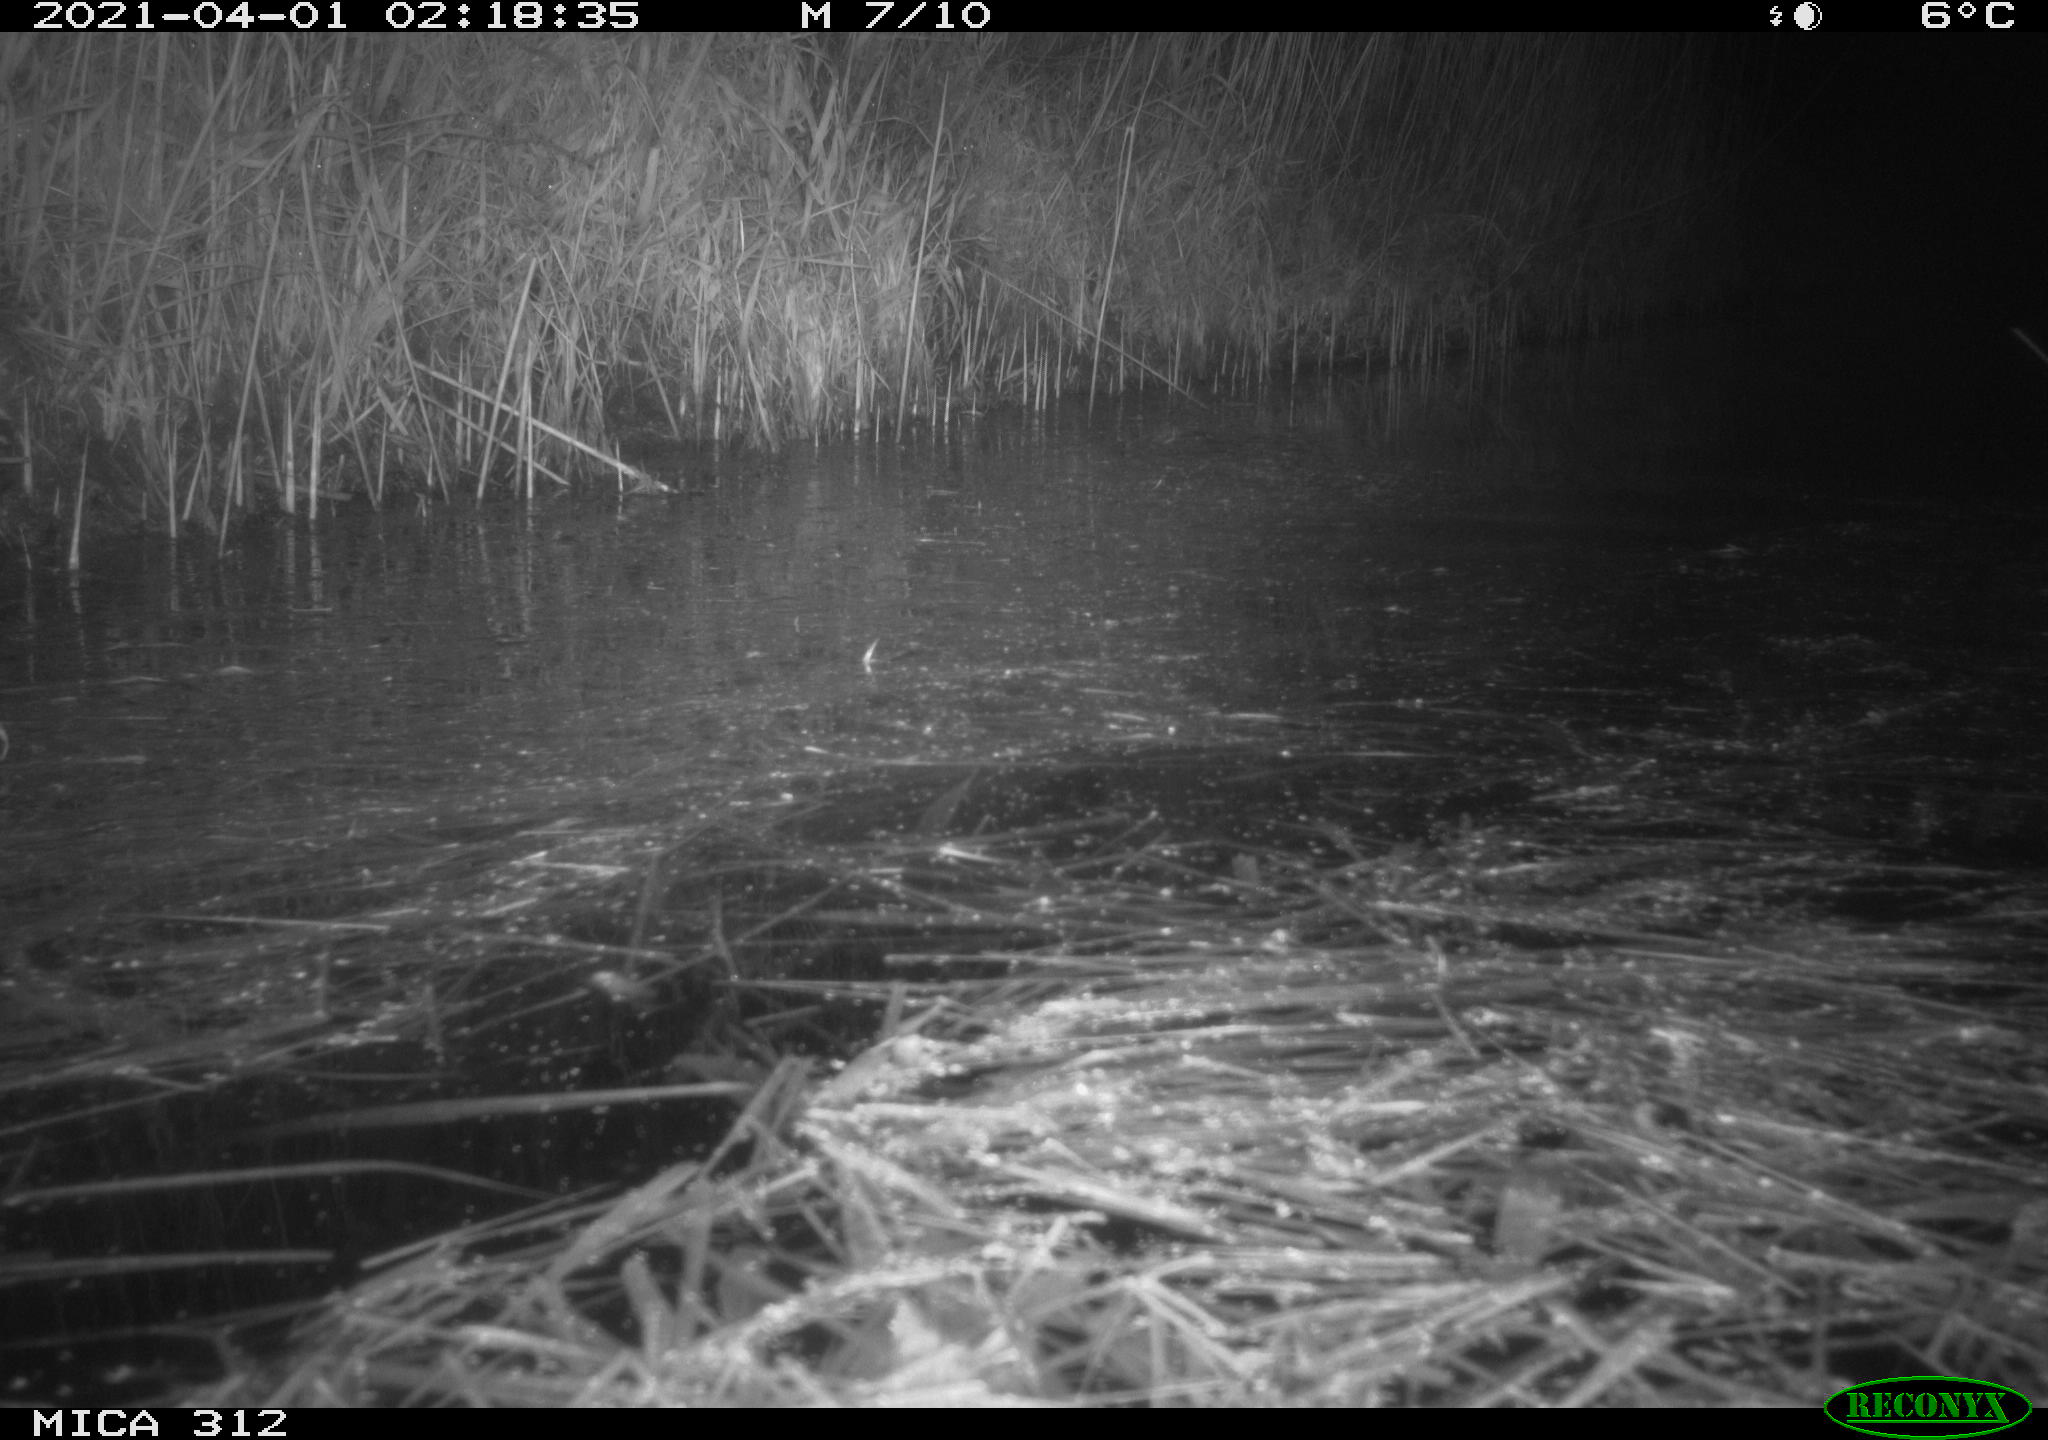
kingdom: Animalia
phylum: Chordata
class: Mammalia
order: Rodentia
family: Cricetidae
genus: Ondatra
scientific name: Ondatra zibethicus
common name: Muskrat
